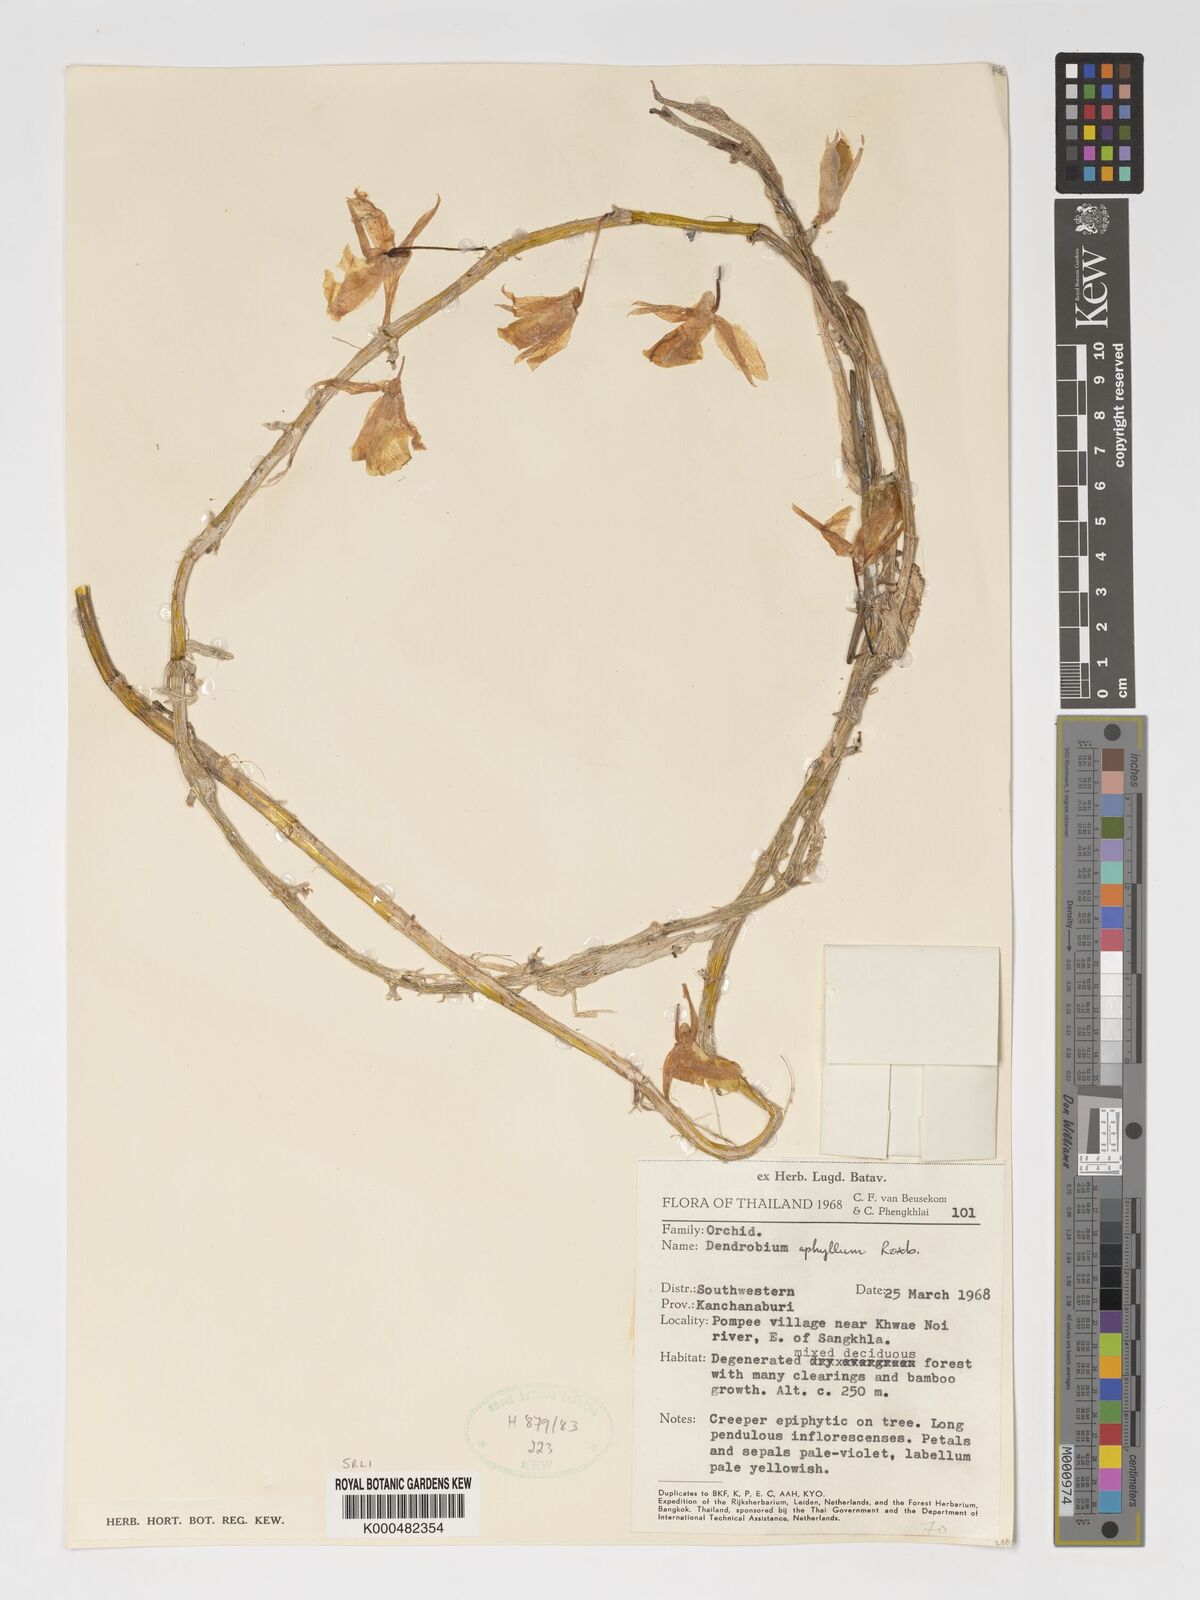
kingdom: Plantae
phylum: Tracheophyta
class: Liliopsida
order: Asparagales
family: Orchidaceae
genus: Dendrobium
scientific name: Dendrobium macrostachyum
